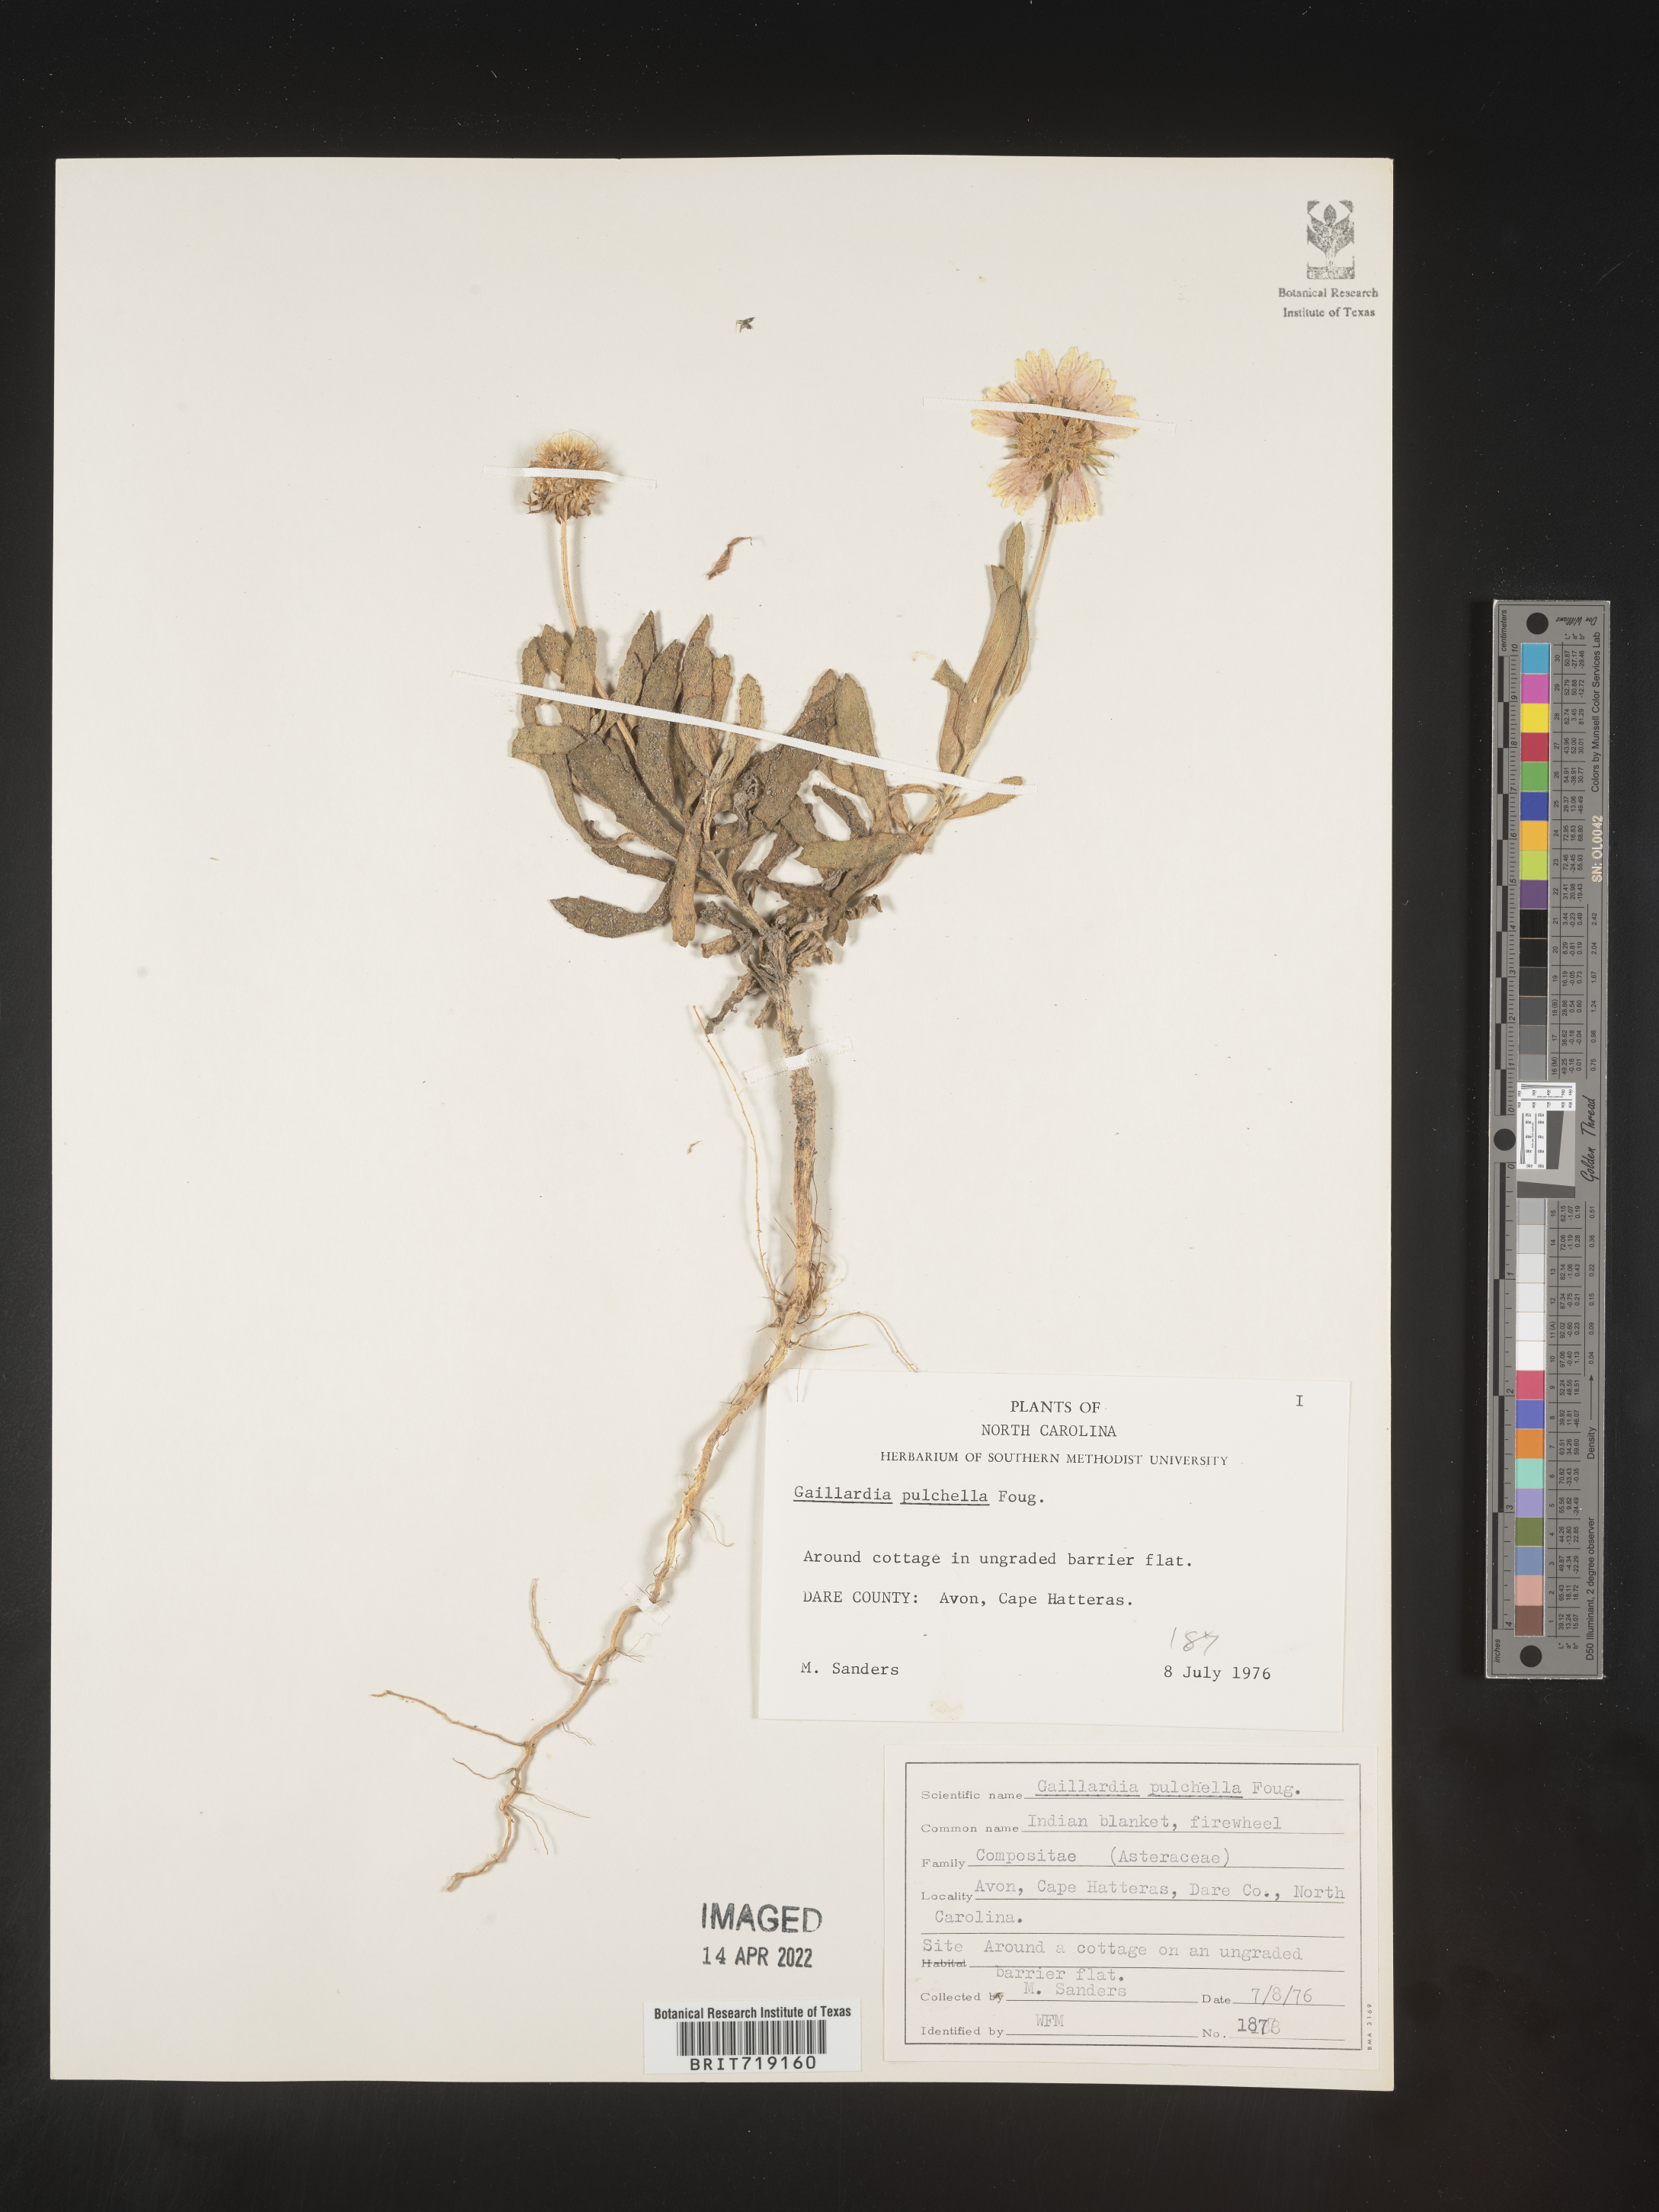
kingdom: Plantae
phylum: Tracheophyta
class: Magnoliopsida
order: Asterales
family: Asteraceae
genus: Gaillardia
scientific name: Gaillardia pulchella
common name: Firewheel
